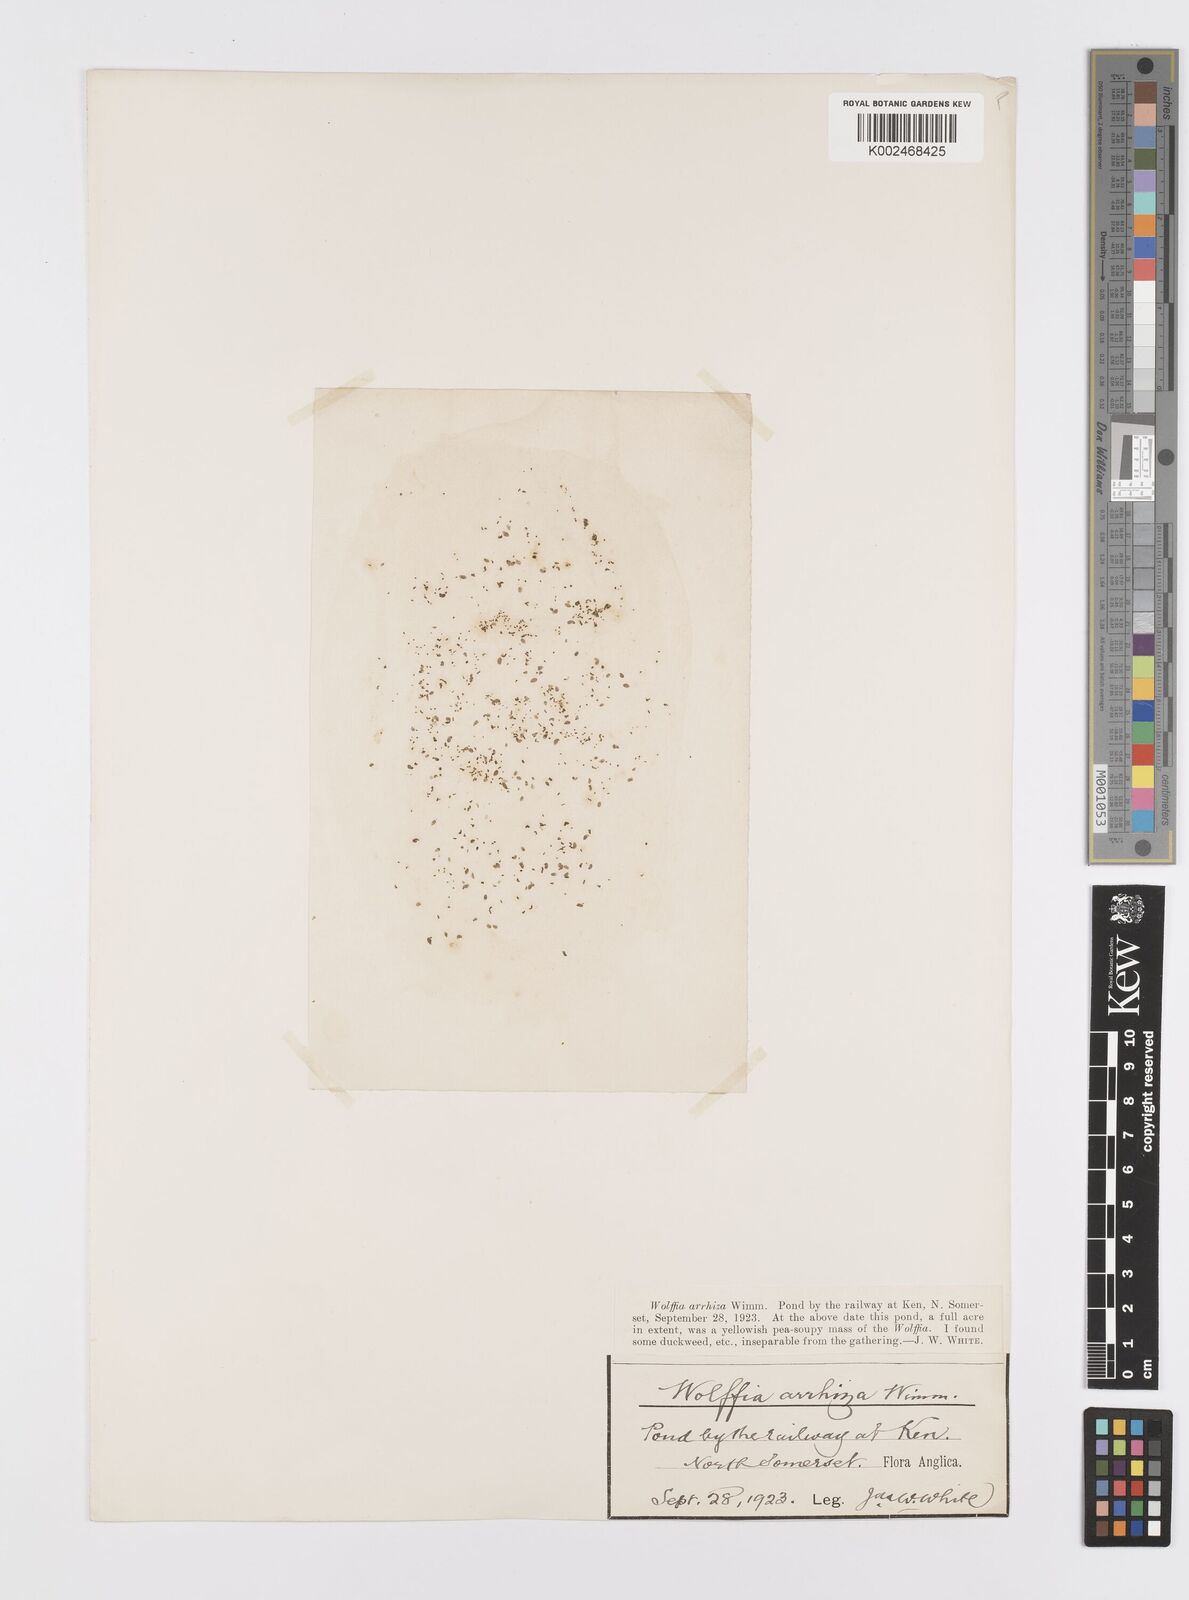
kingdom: Plantae
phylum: Tracheophyta
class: Liliopsida
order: Alismatales
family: Araceae
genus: Wolffia
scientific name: Wolffia arrhiza
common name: Rootless duckweed
